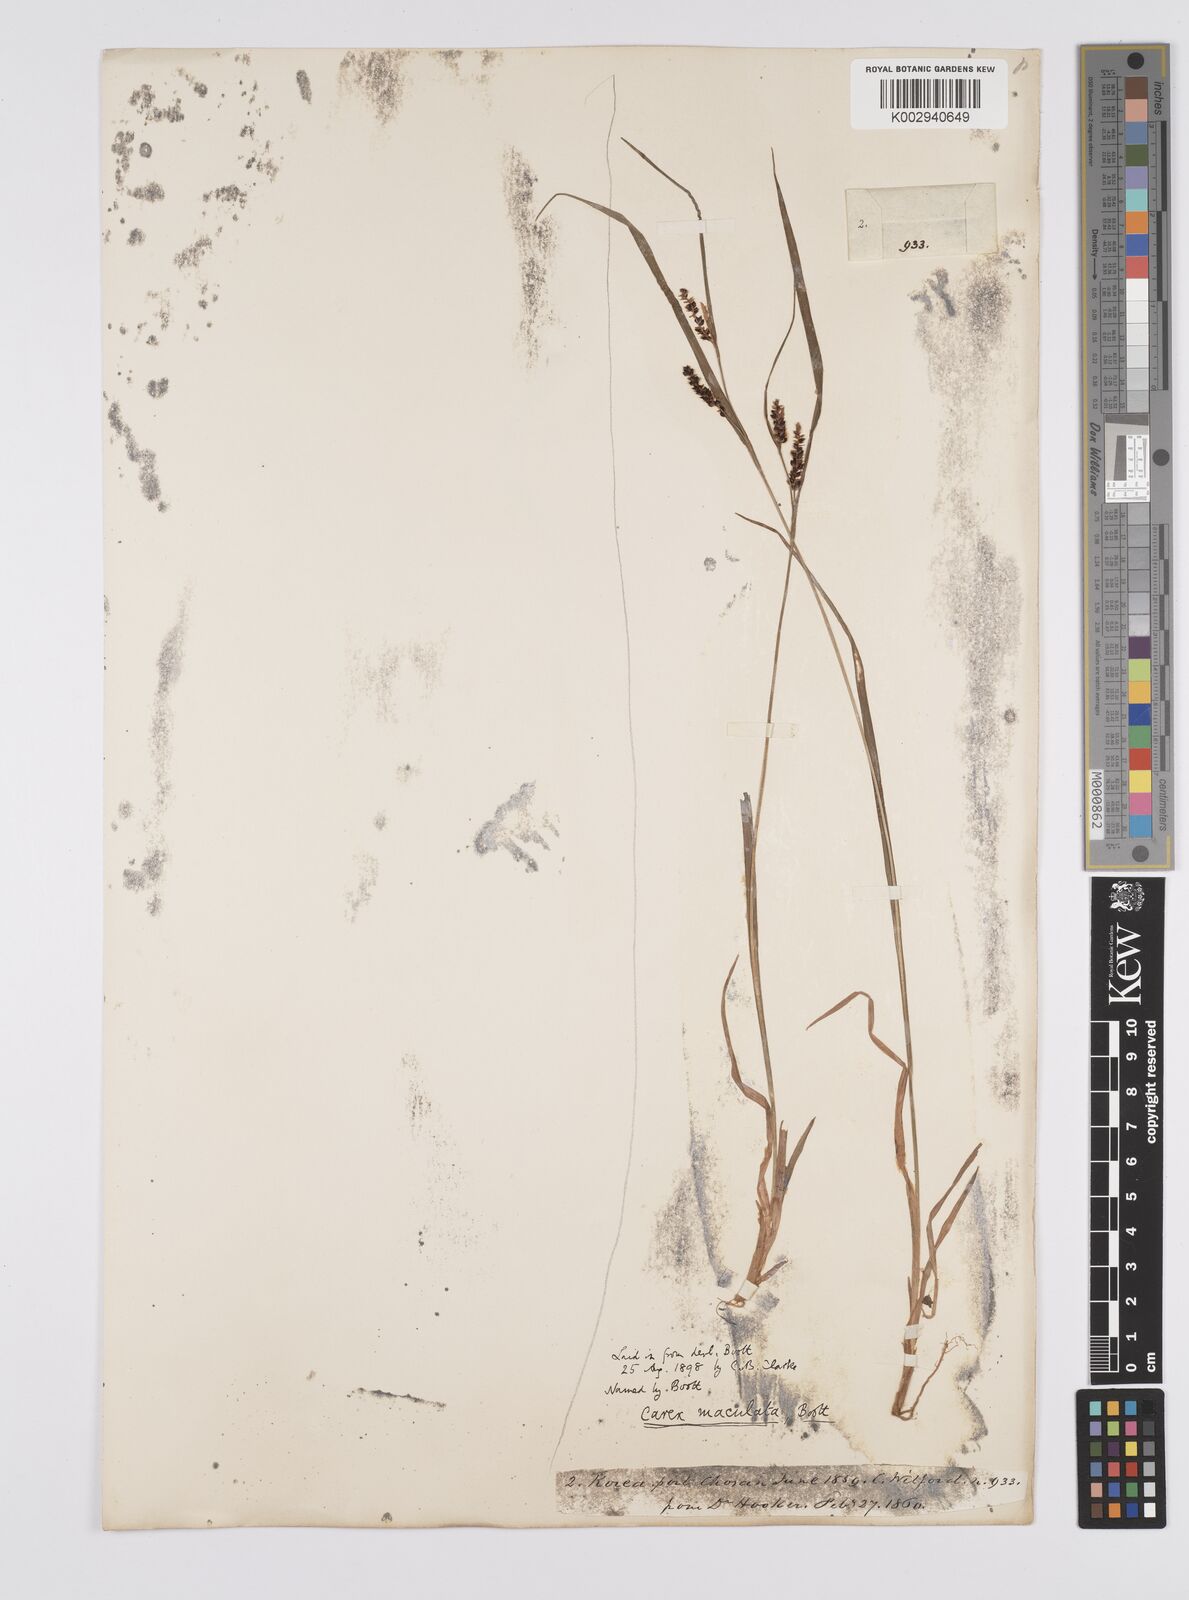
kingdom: Plantae
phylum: Tracheophyta
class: Liliopsida
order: Poales
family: Cyperaceae
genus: Carex
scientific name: Carex maculata
